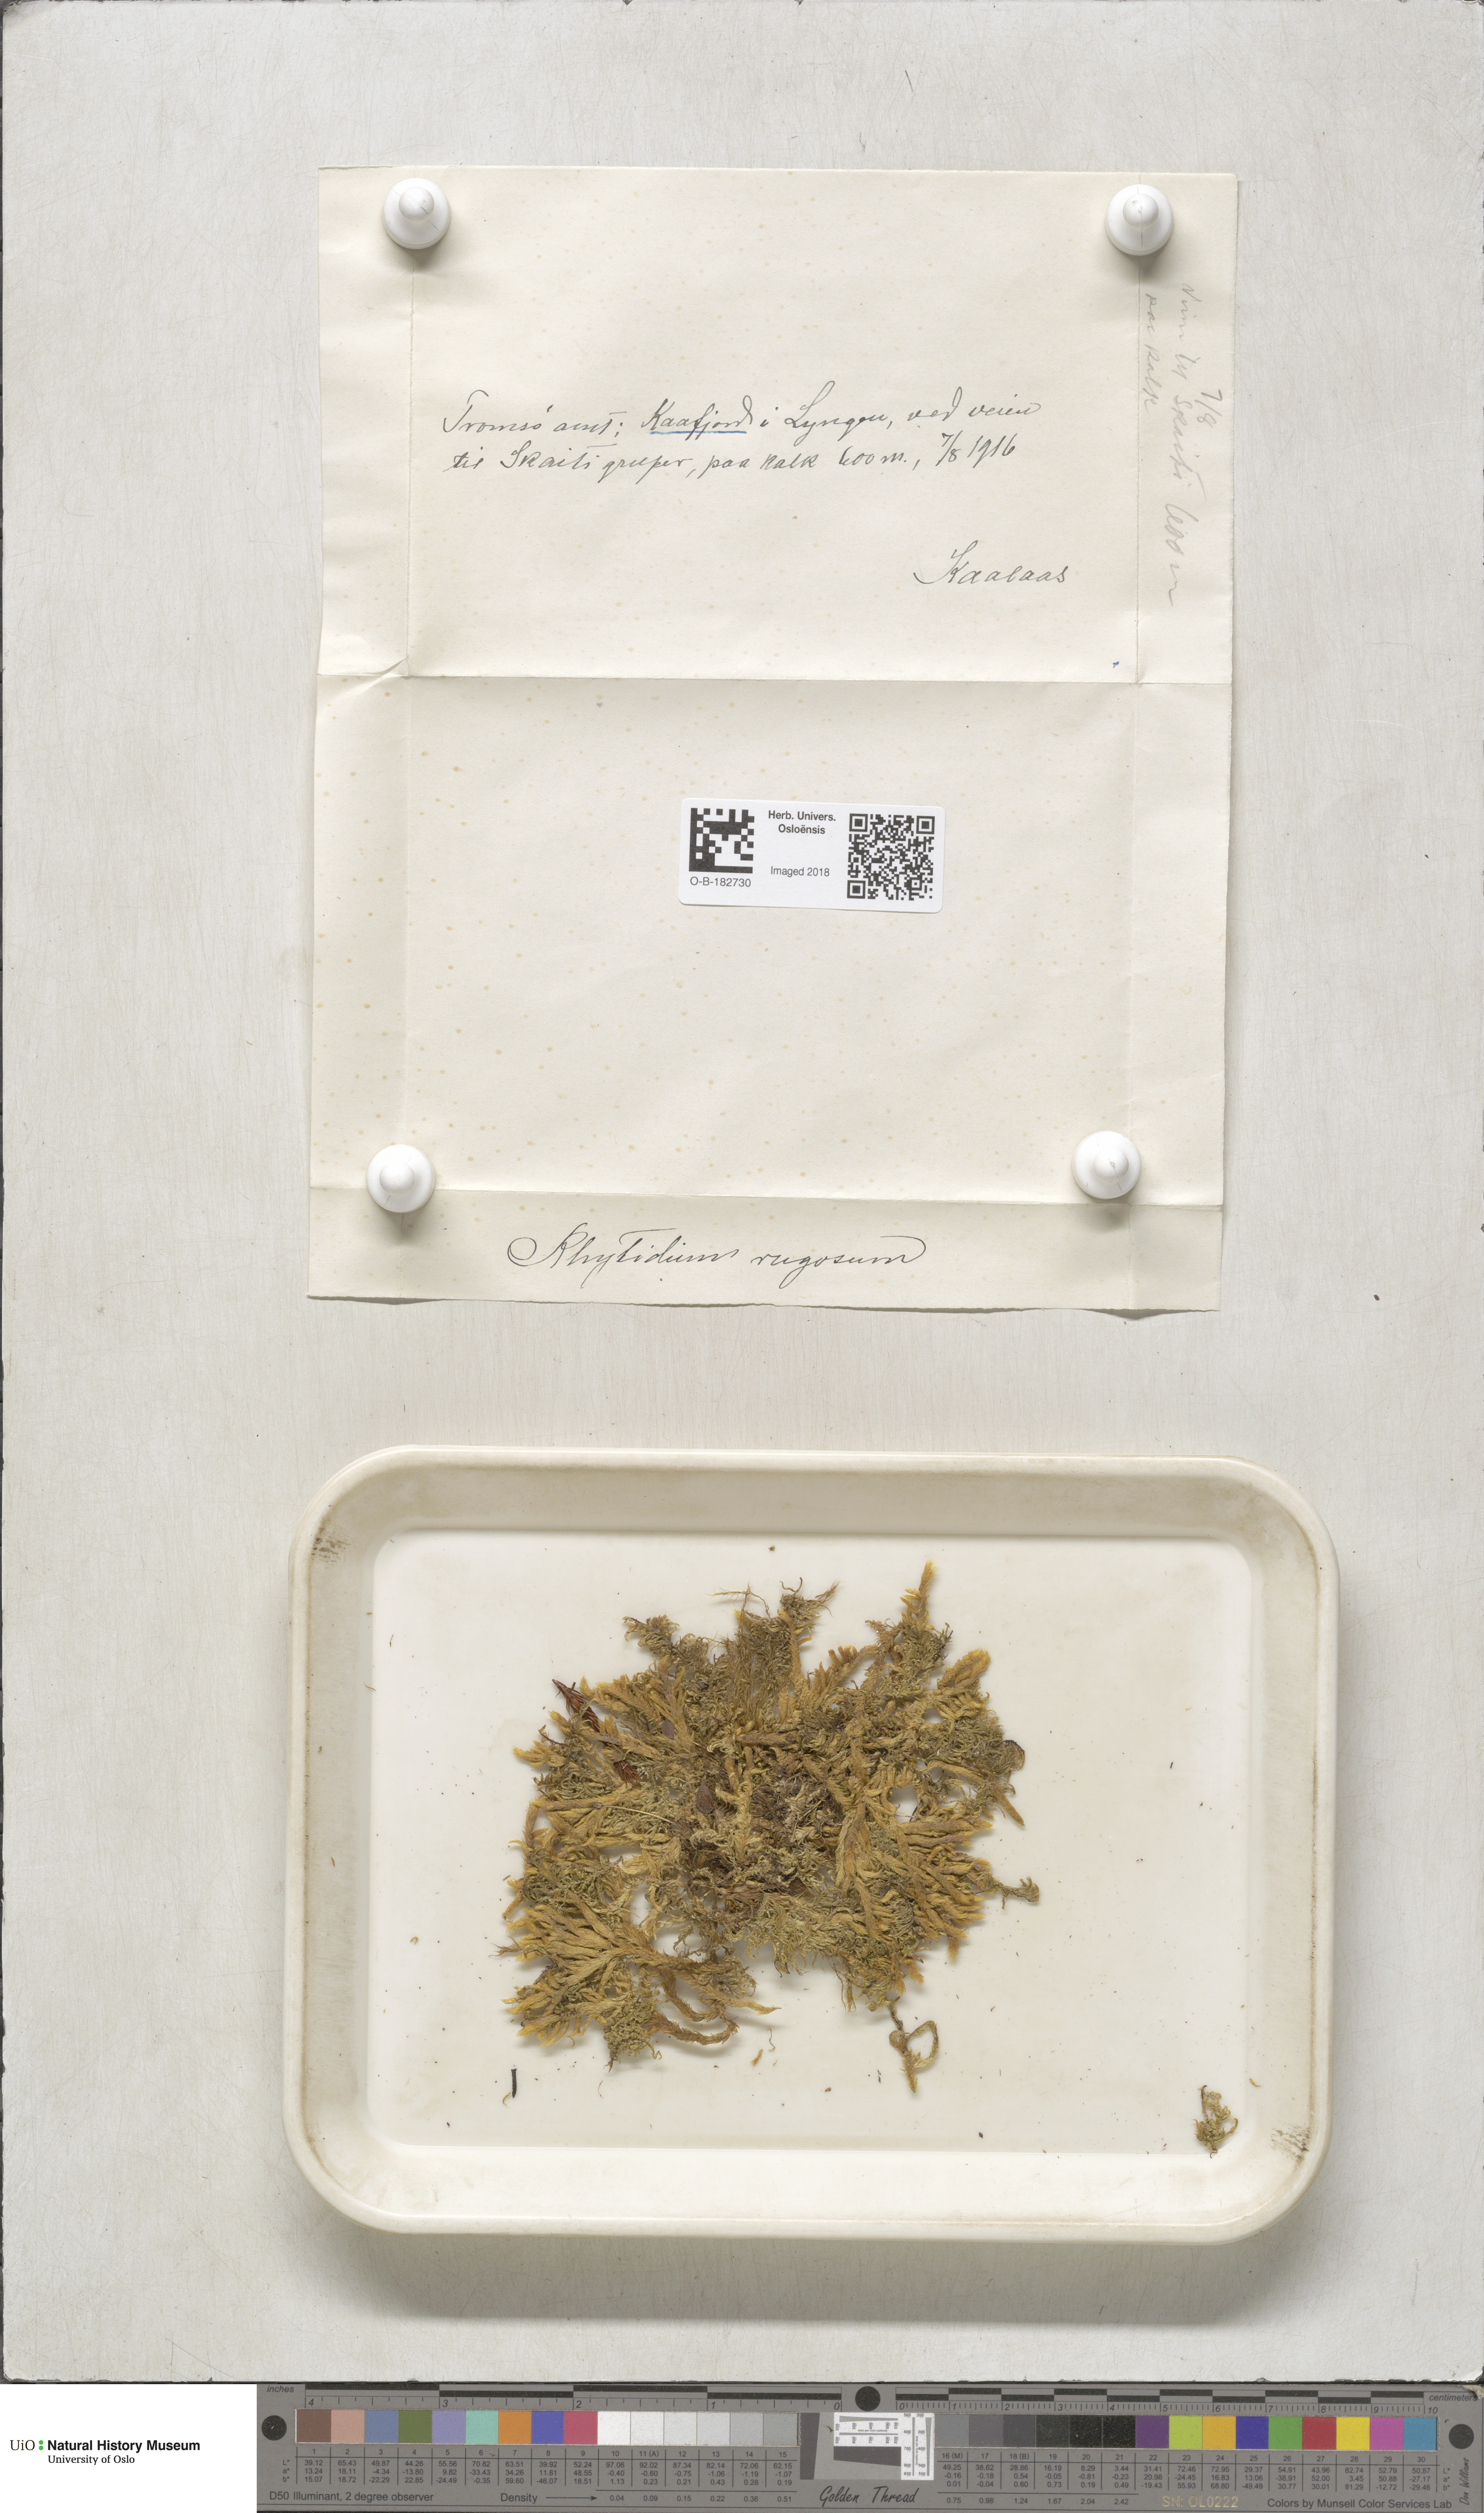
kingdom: Plantae
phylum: Bryophyta
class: Bryopsida
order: Hypnales
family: Rhytidiaceae
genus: Rhytidium
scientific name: Rhytidium rugosum
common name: Wrinkle-leaved moss
